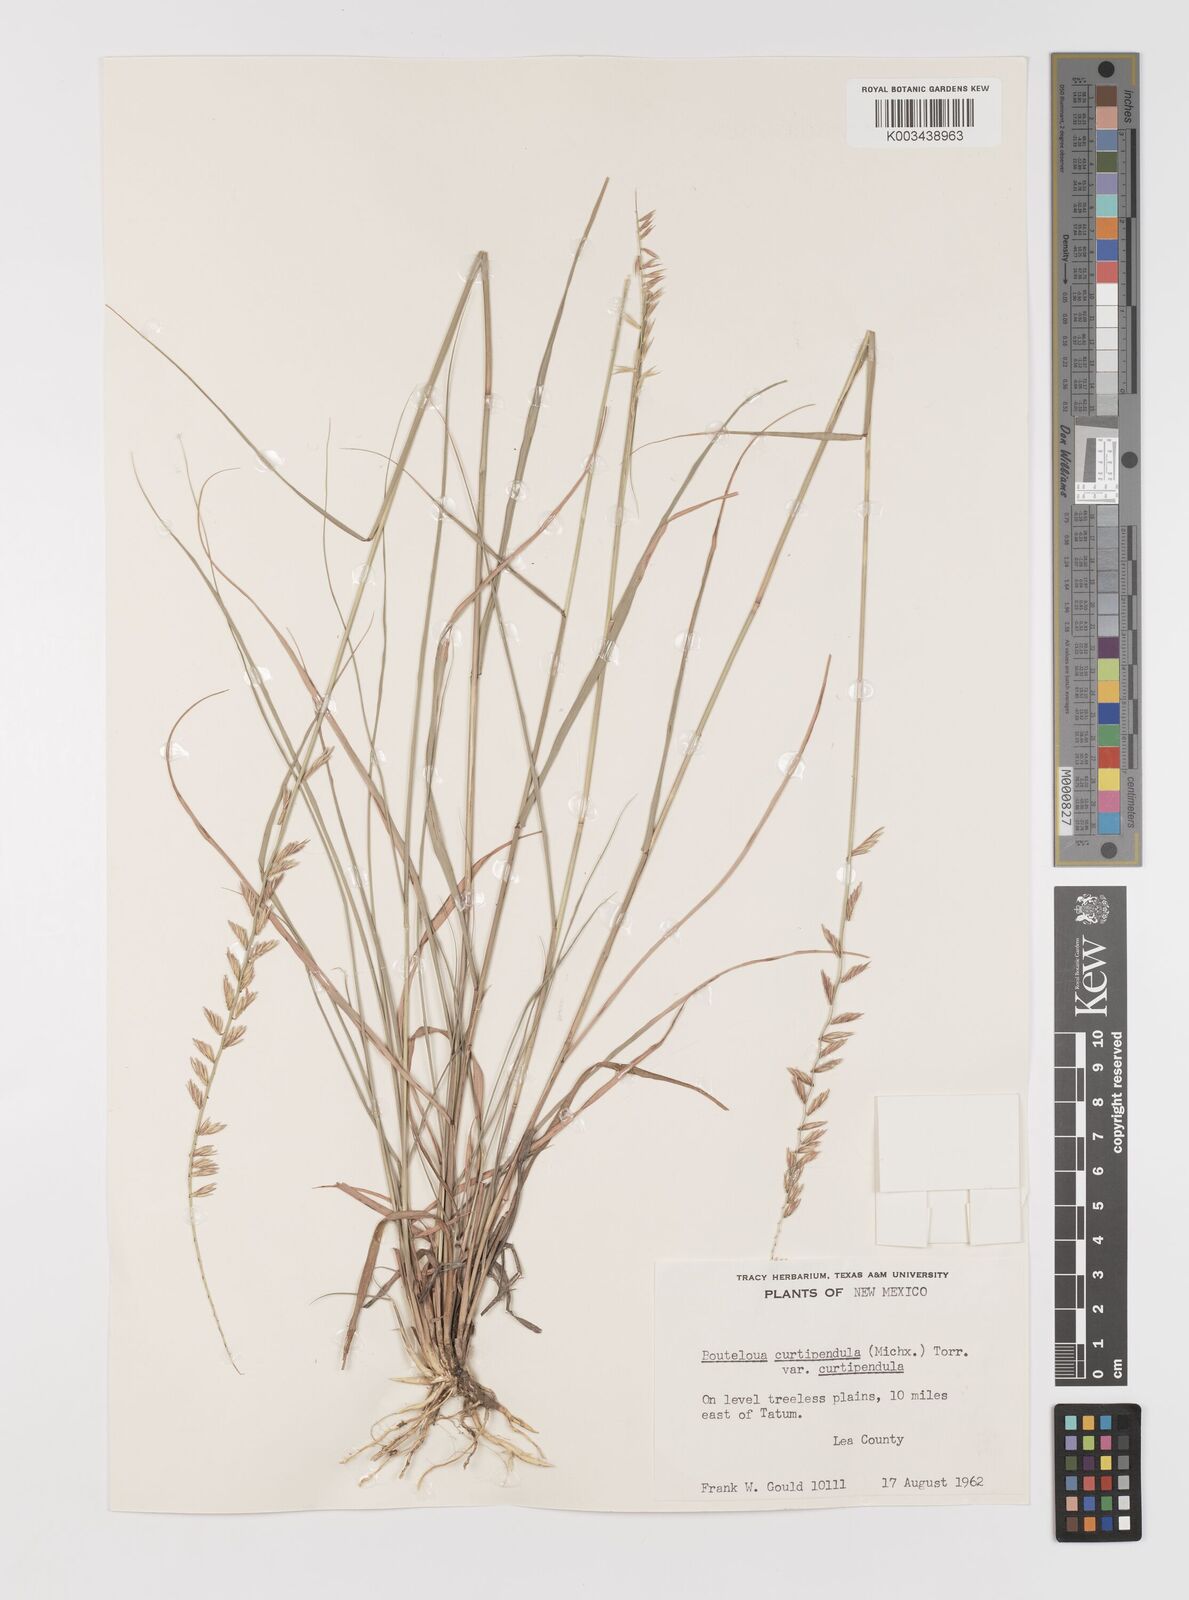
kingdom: Plantae
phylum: Tracheophyta
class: Liliopsida
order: Poales
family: Poaceae
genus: Bouteloua
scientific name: Bouteloua curtipendula
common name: Side-oats grama
